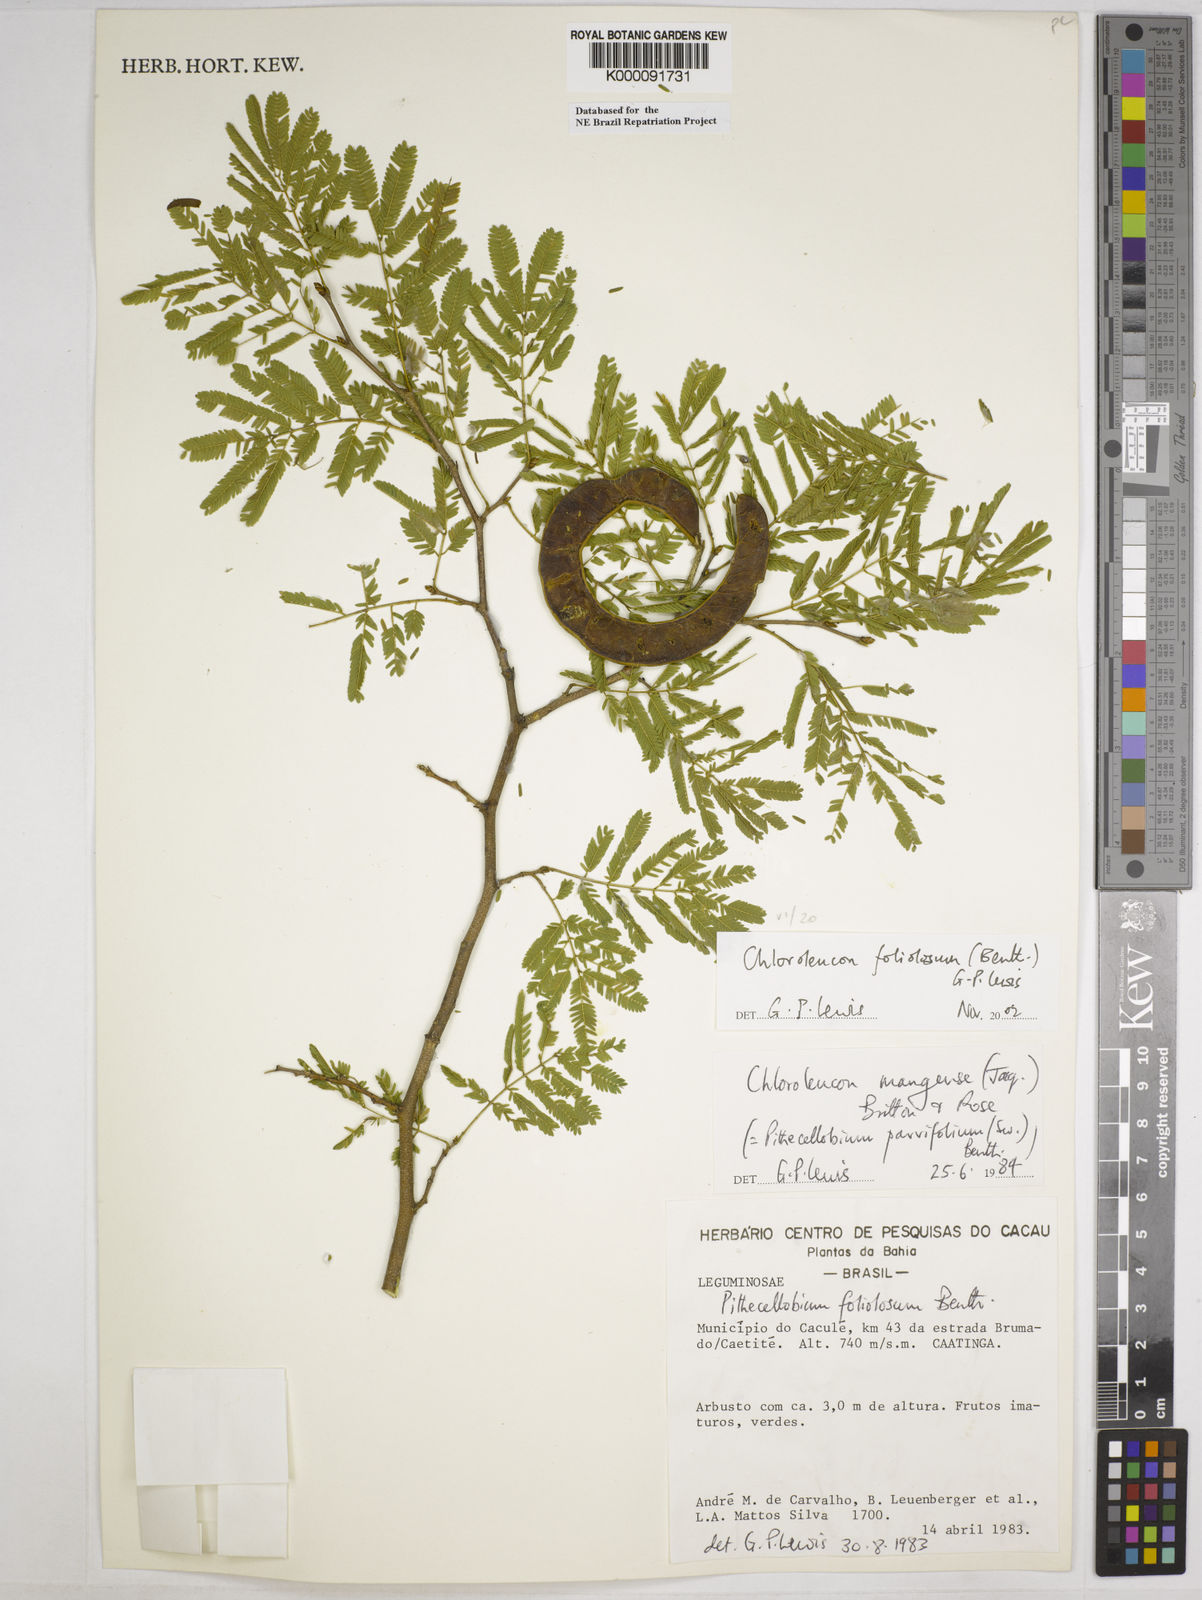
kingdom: Plantae
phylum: Tracheophyta
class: Magnoliopsida
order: Fabales
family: Fabaceae
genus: Chloroleucon
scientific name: Chloroleucon foliolosum
